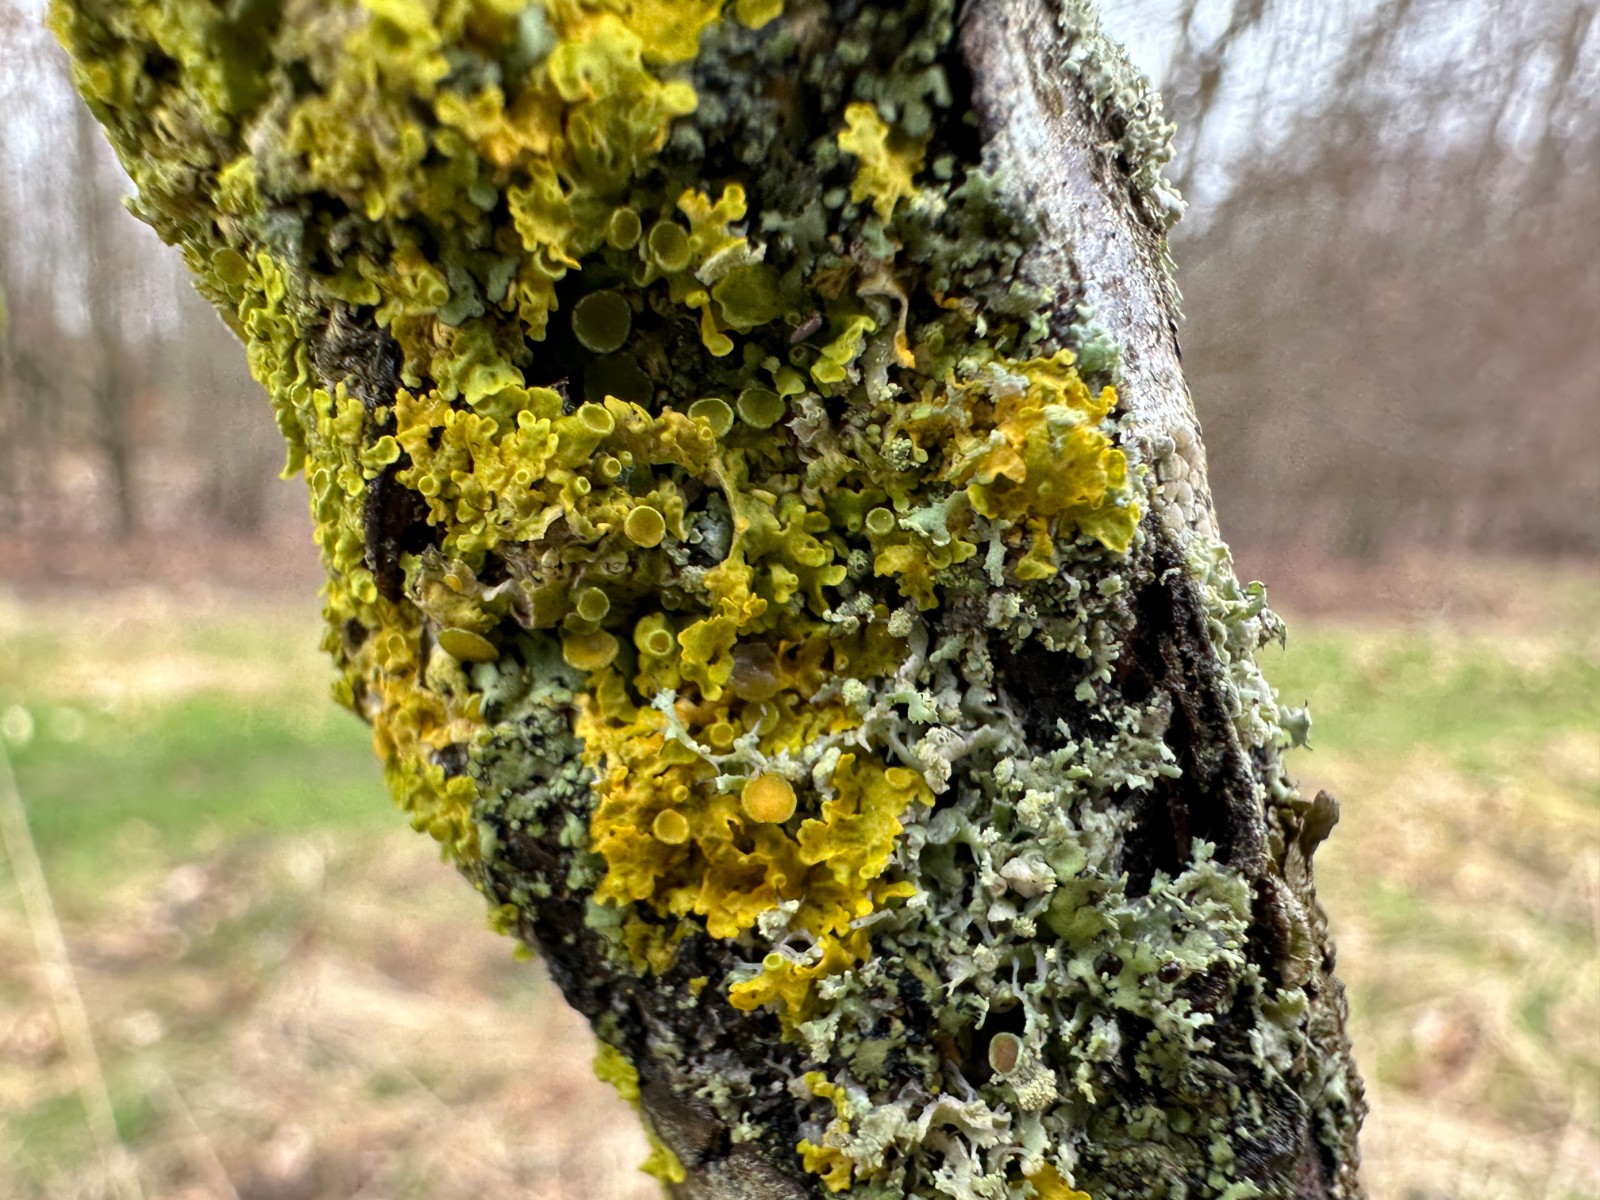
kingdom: Fungi
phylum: Ascomycota
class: Lecanoromycetes
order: Teloschistales
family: Teloschistaceae
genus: Xanthoria
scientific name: Xanthoria parietina
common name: almindelig væggelav
